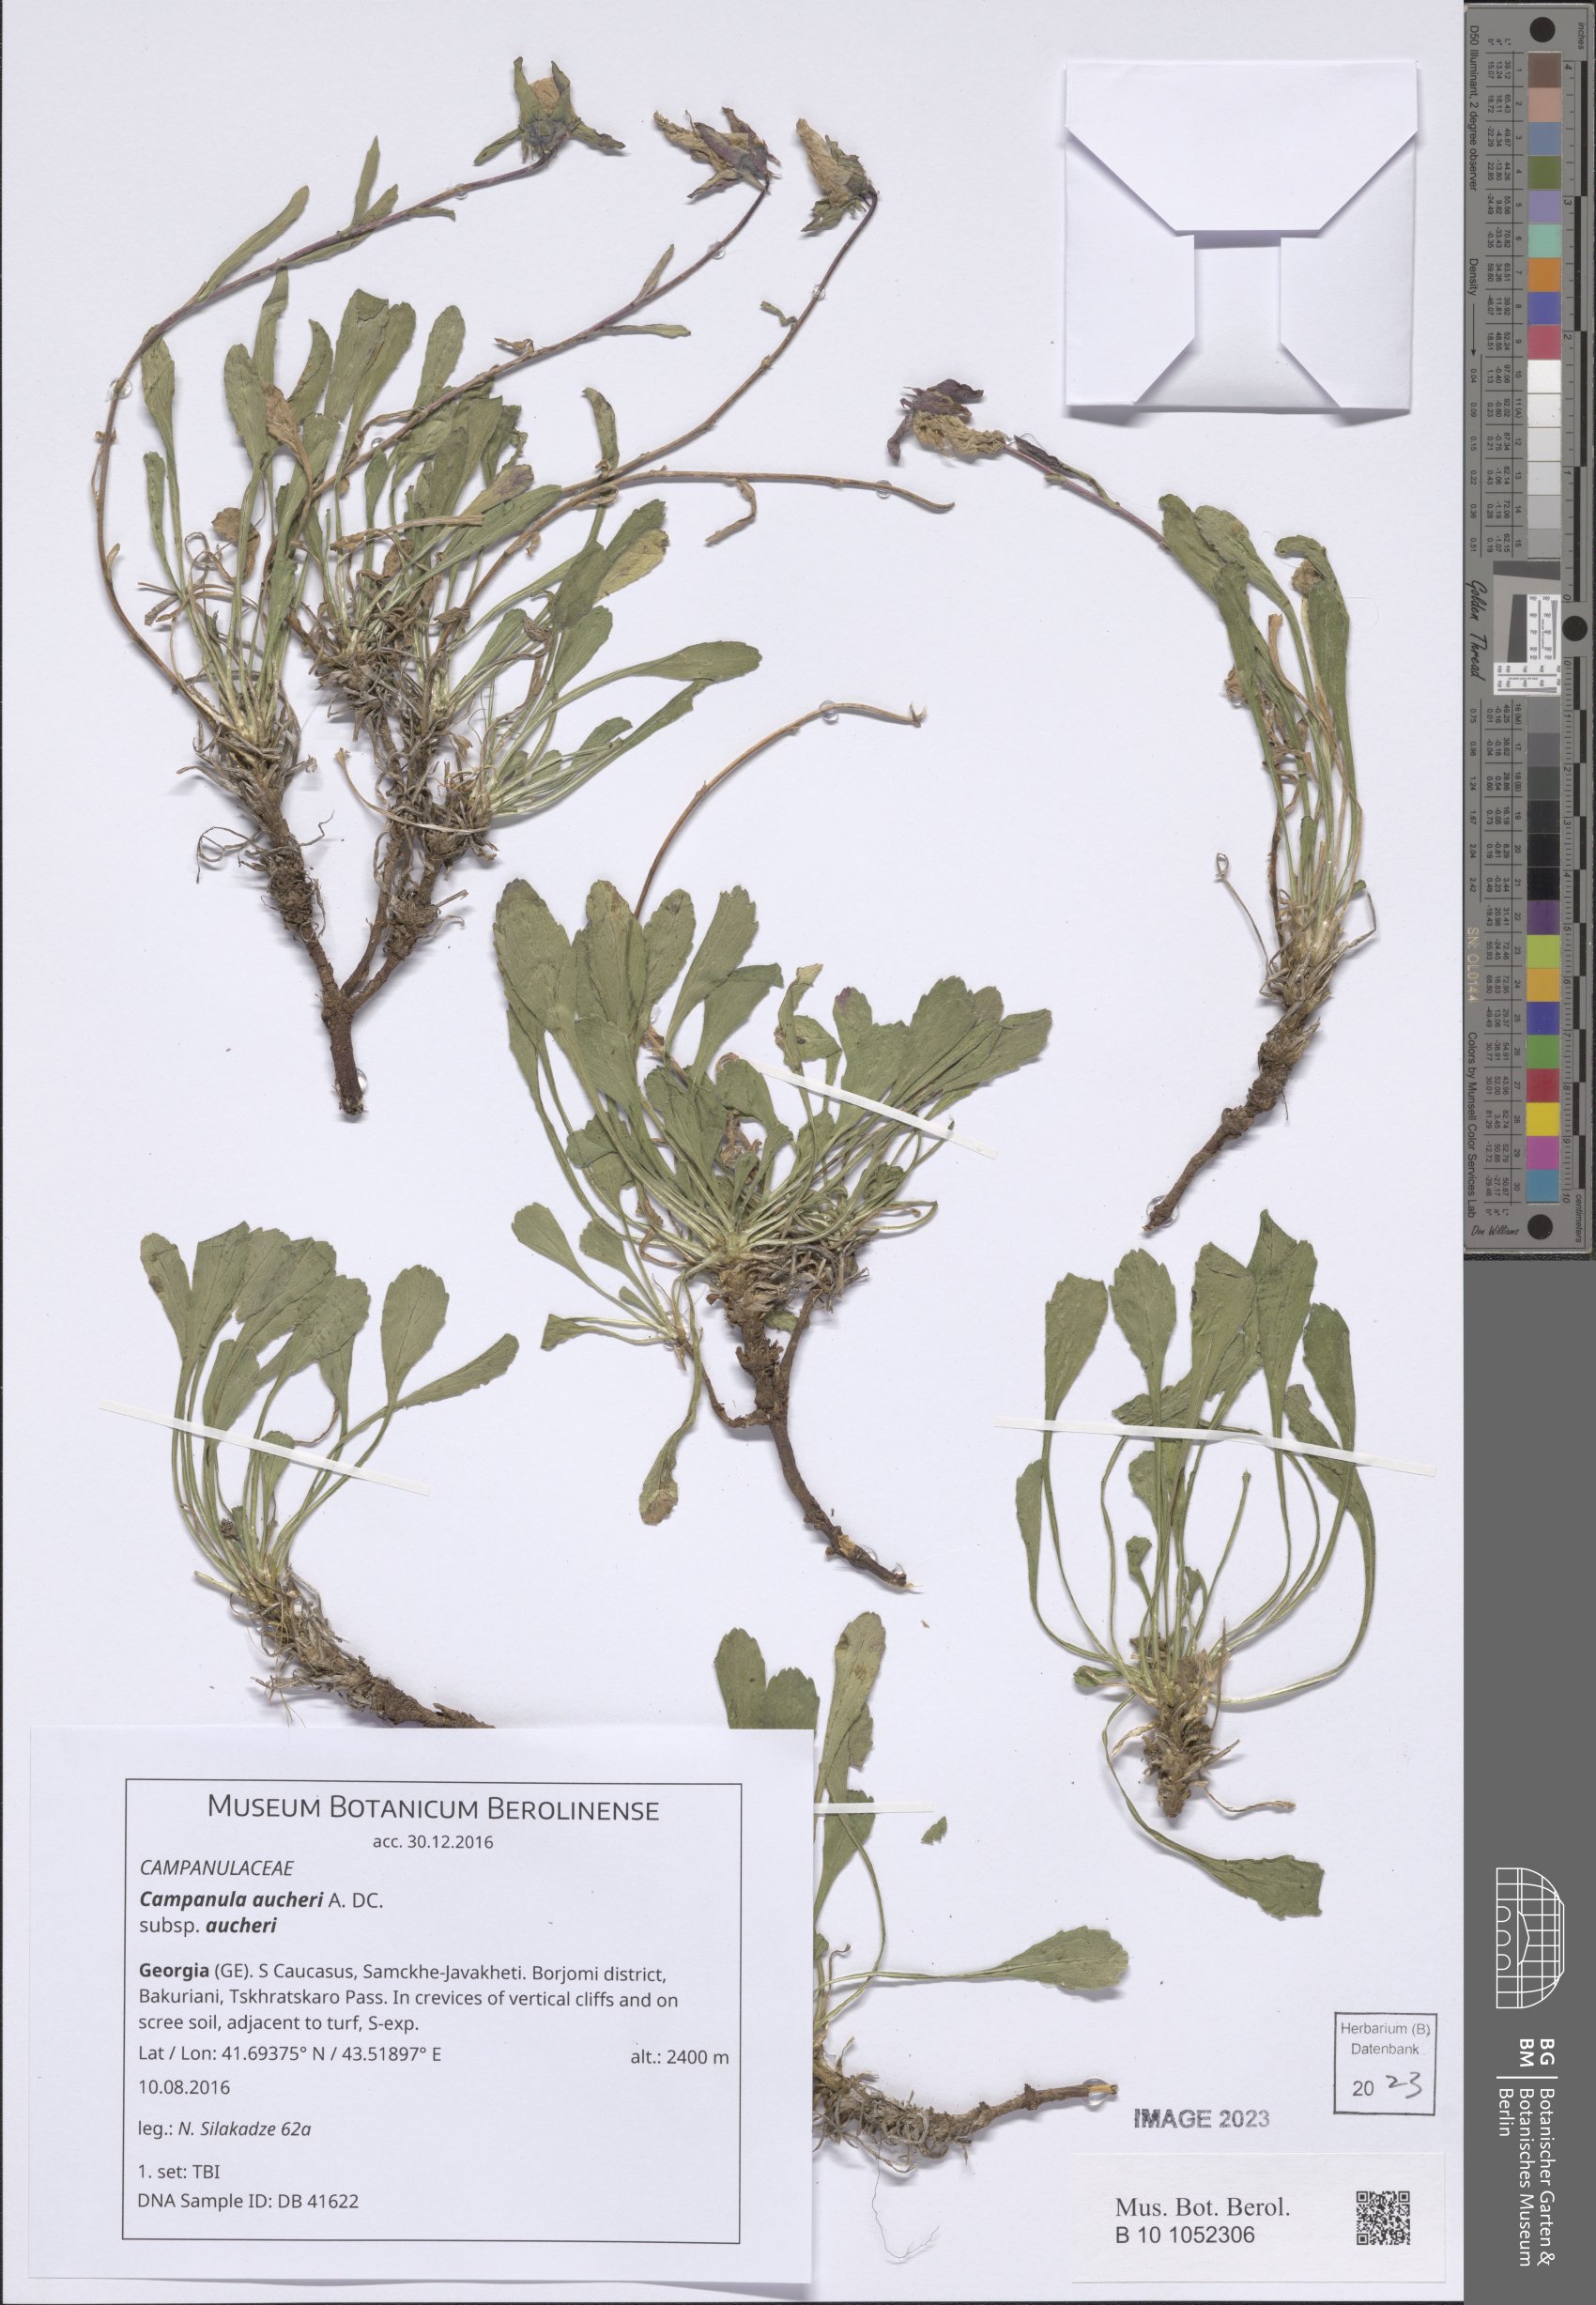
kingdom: Plantae
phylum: Tracheophyta
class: Magnoliopsida
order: Asterales
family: Campanulaceae
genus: Campanula
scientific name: Campanula saxifraga
